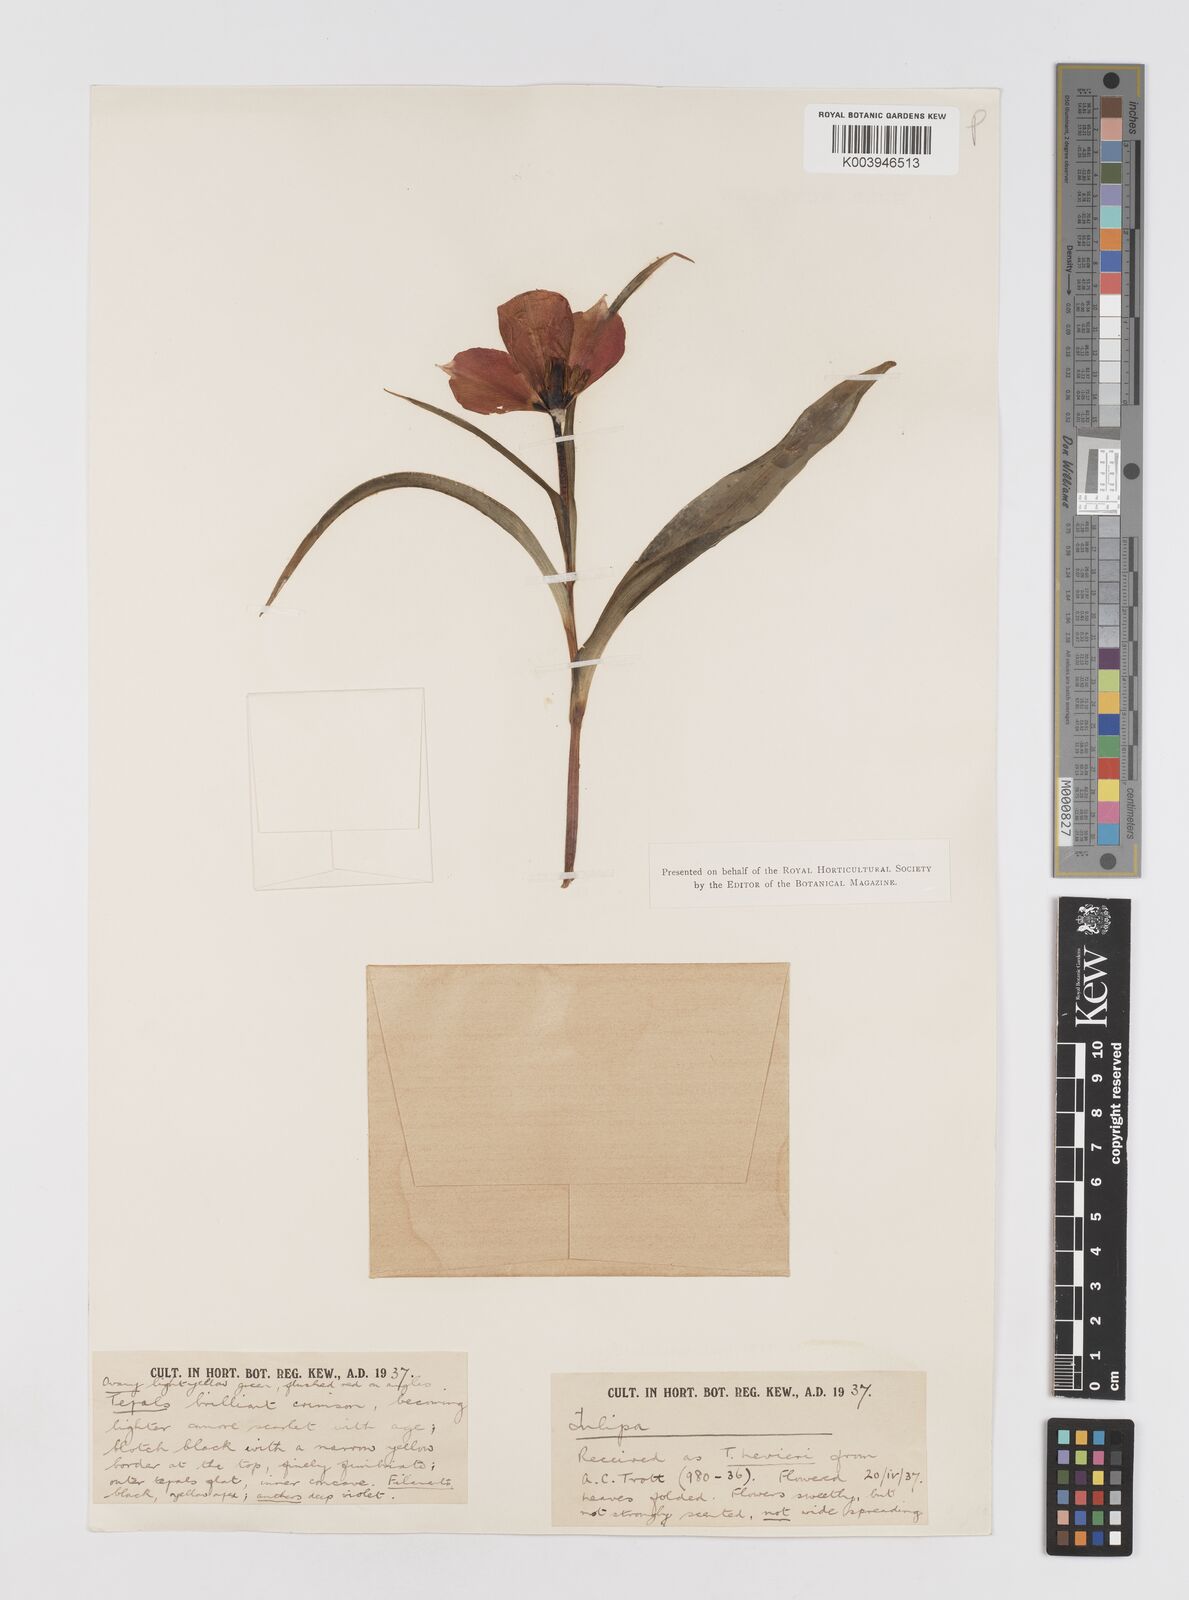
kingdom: Plantae
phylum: Tracheophyta
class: Liliopsida
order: Liliales
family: Liliaceae
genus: Tulipa
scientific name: Tulipa
